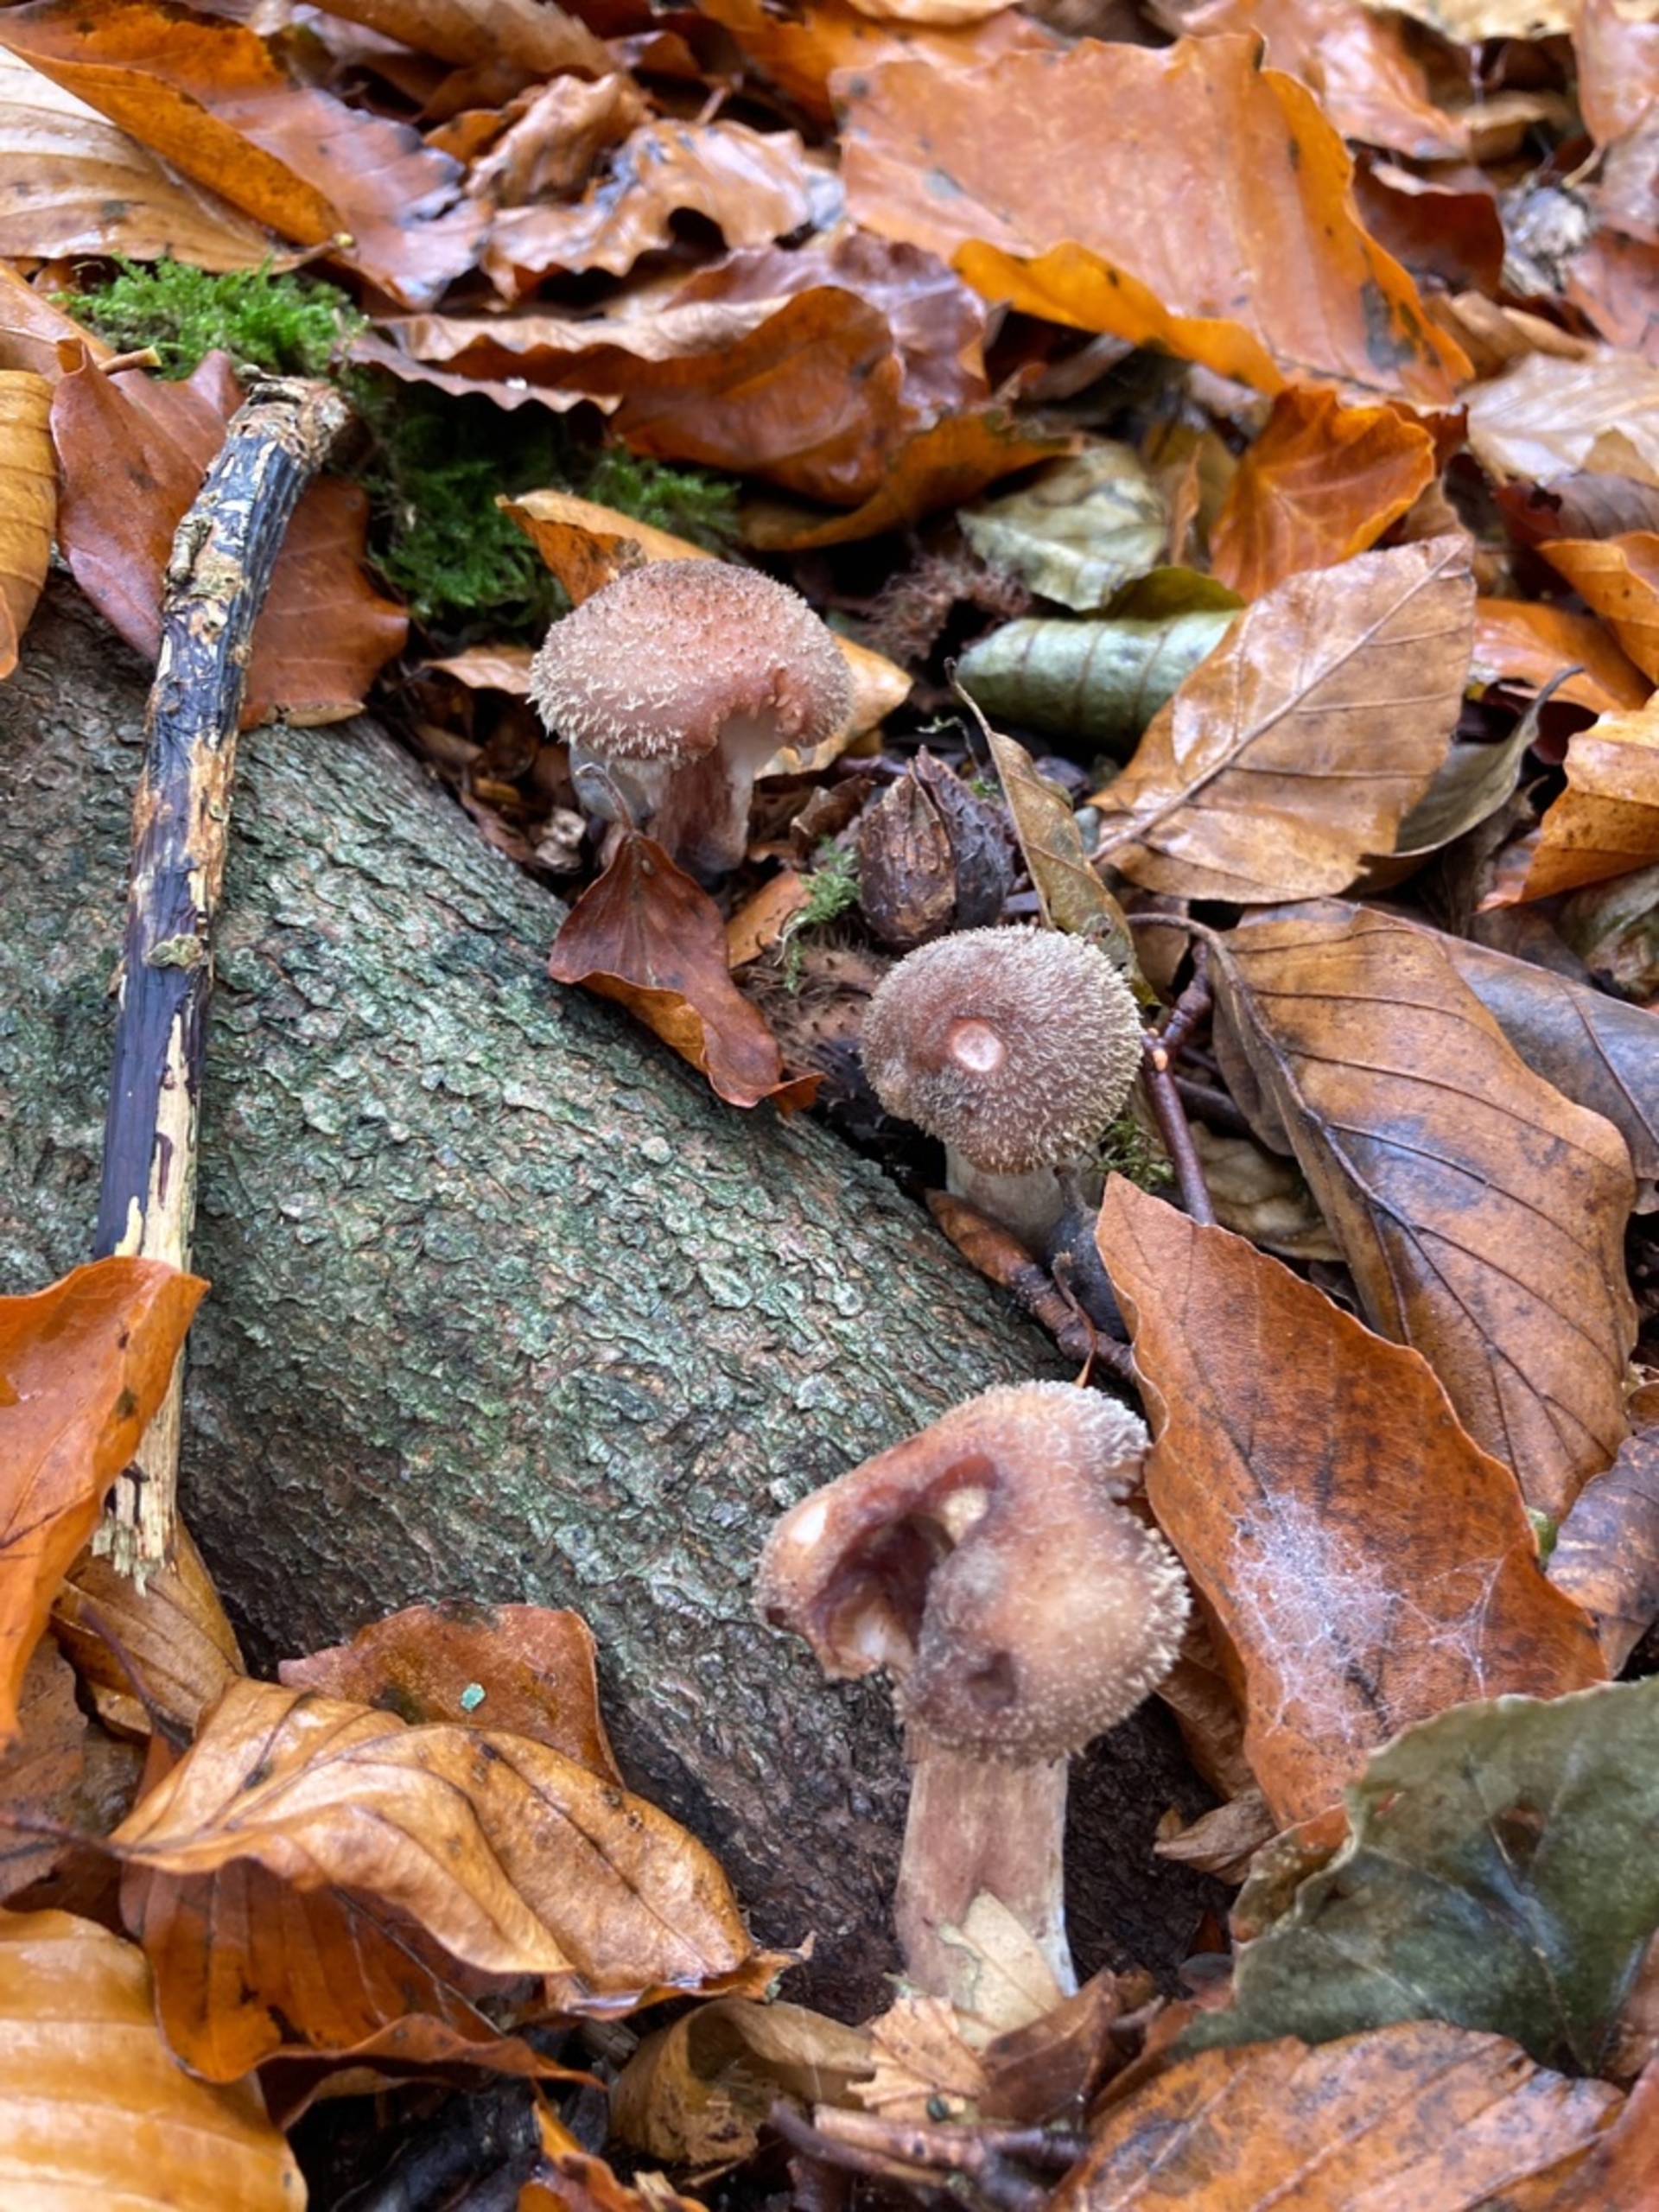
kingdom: Fungi
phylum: Basidiomycota
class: Agaricomycetes
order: Agaricales
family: Physalacriaceae
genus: Armillaria
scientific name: Armillaria
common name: Honningsvamp
